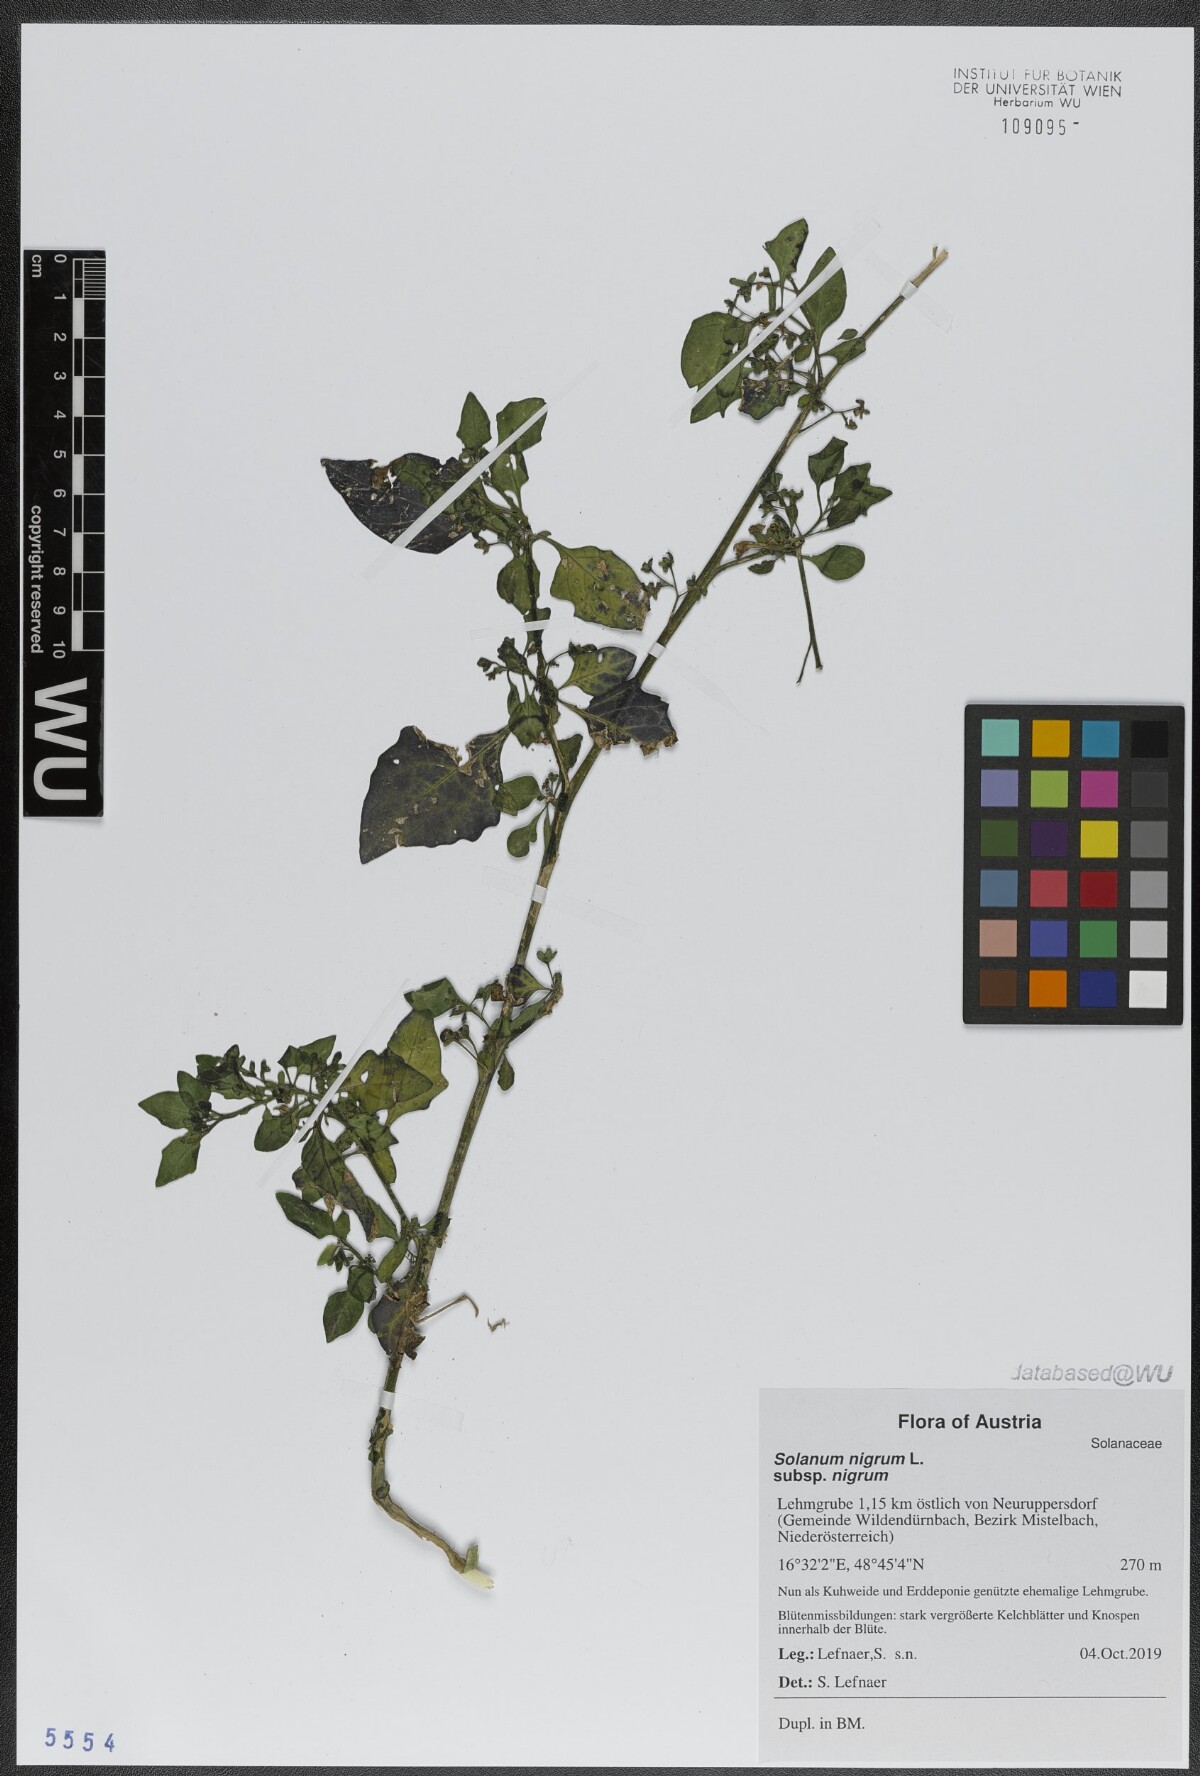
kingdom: Plantae
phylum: Tracheophyta
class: Magnoliopsida
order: Solanales
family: Solanaceae
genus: Solanum
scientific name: Solanum nigrum
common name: Black nightshade
